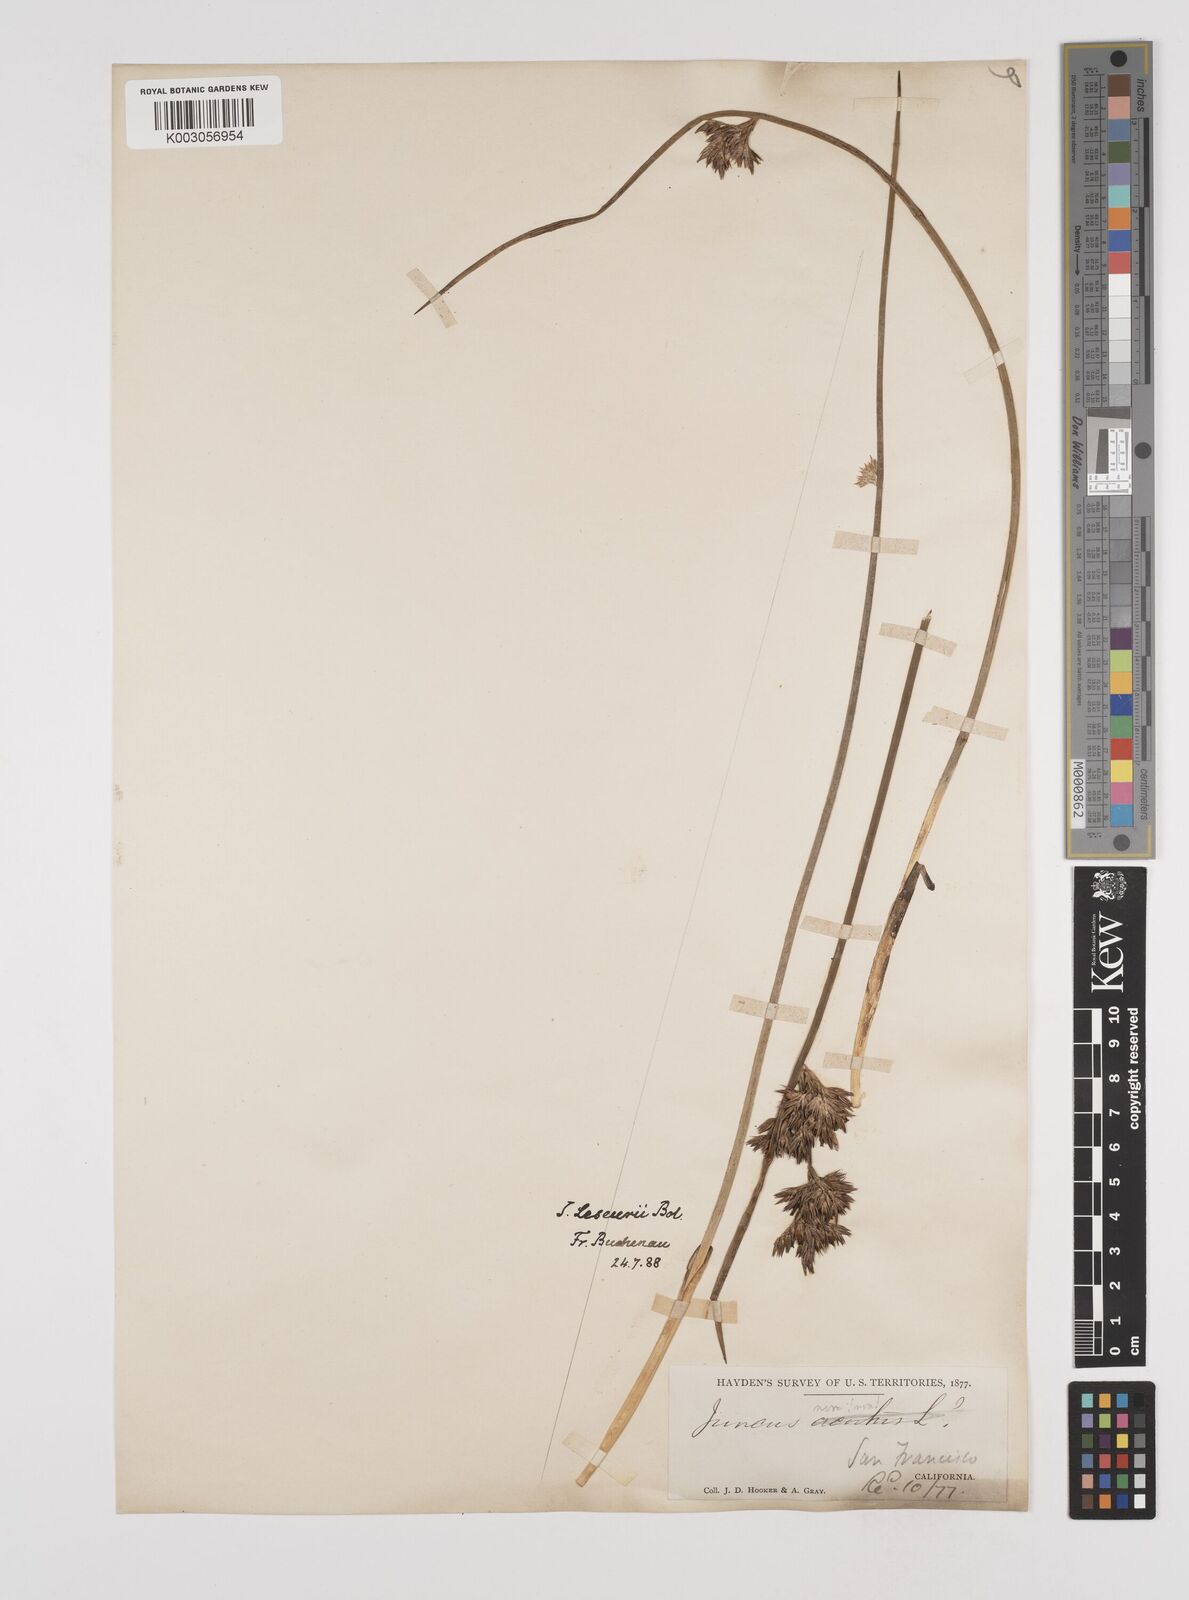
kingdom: Plantae
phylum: Tracheophyta
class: Liliopsida
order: Poales
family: Juncaceae
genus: Juncus
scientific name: Juncus lesueurii
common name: Lesueur's rush
